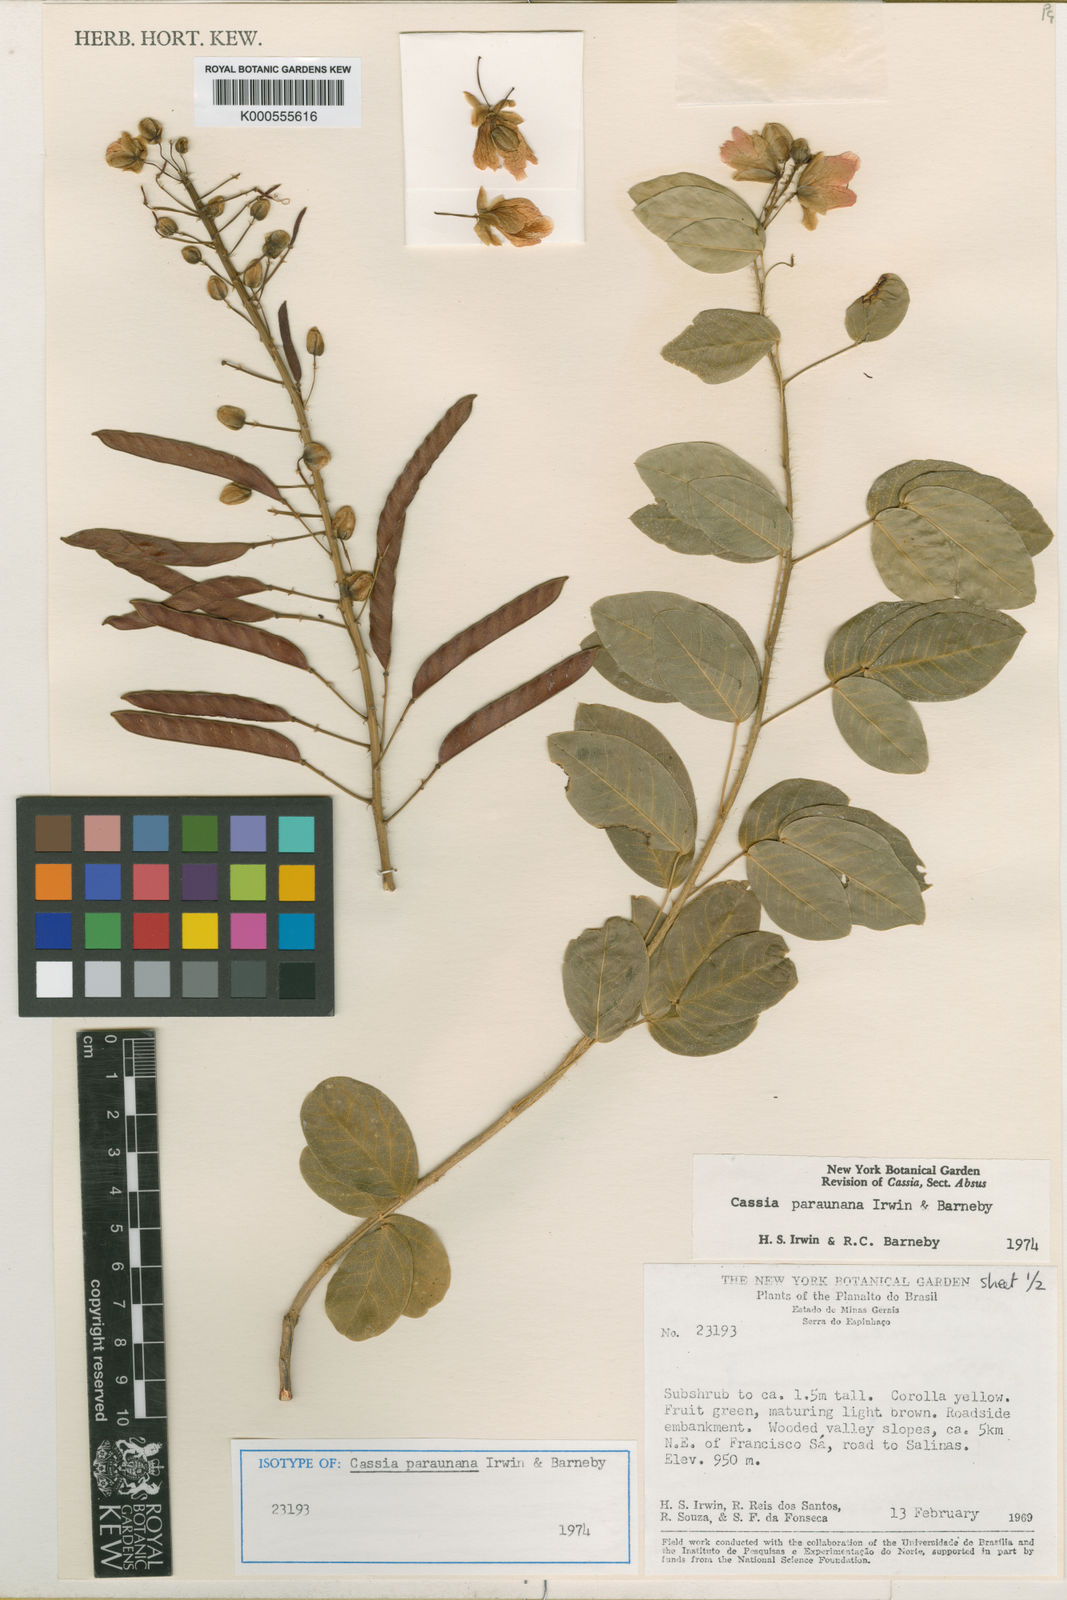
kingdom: Plantae
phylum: Tracheophyta
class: Magnoliopsida
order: Fabales
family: Fabaceae
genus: Chamaecrista
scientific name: Chamaecrista paraunana
